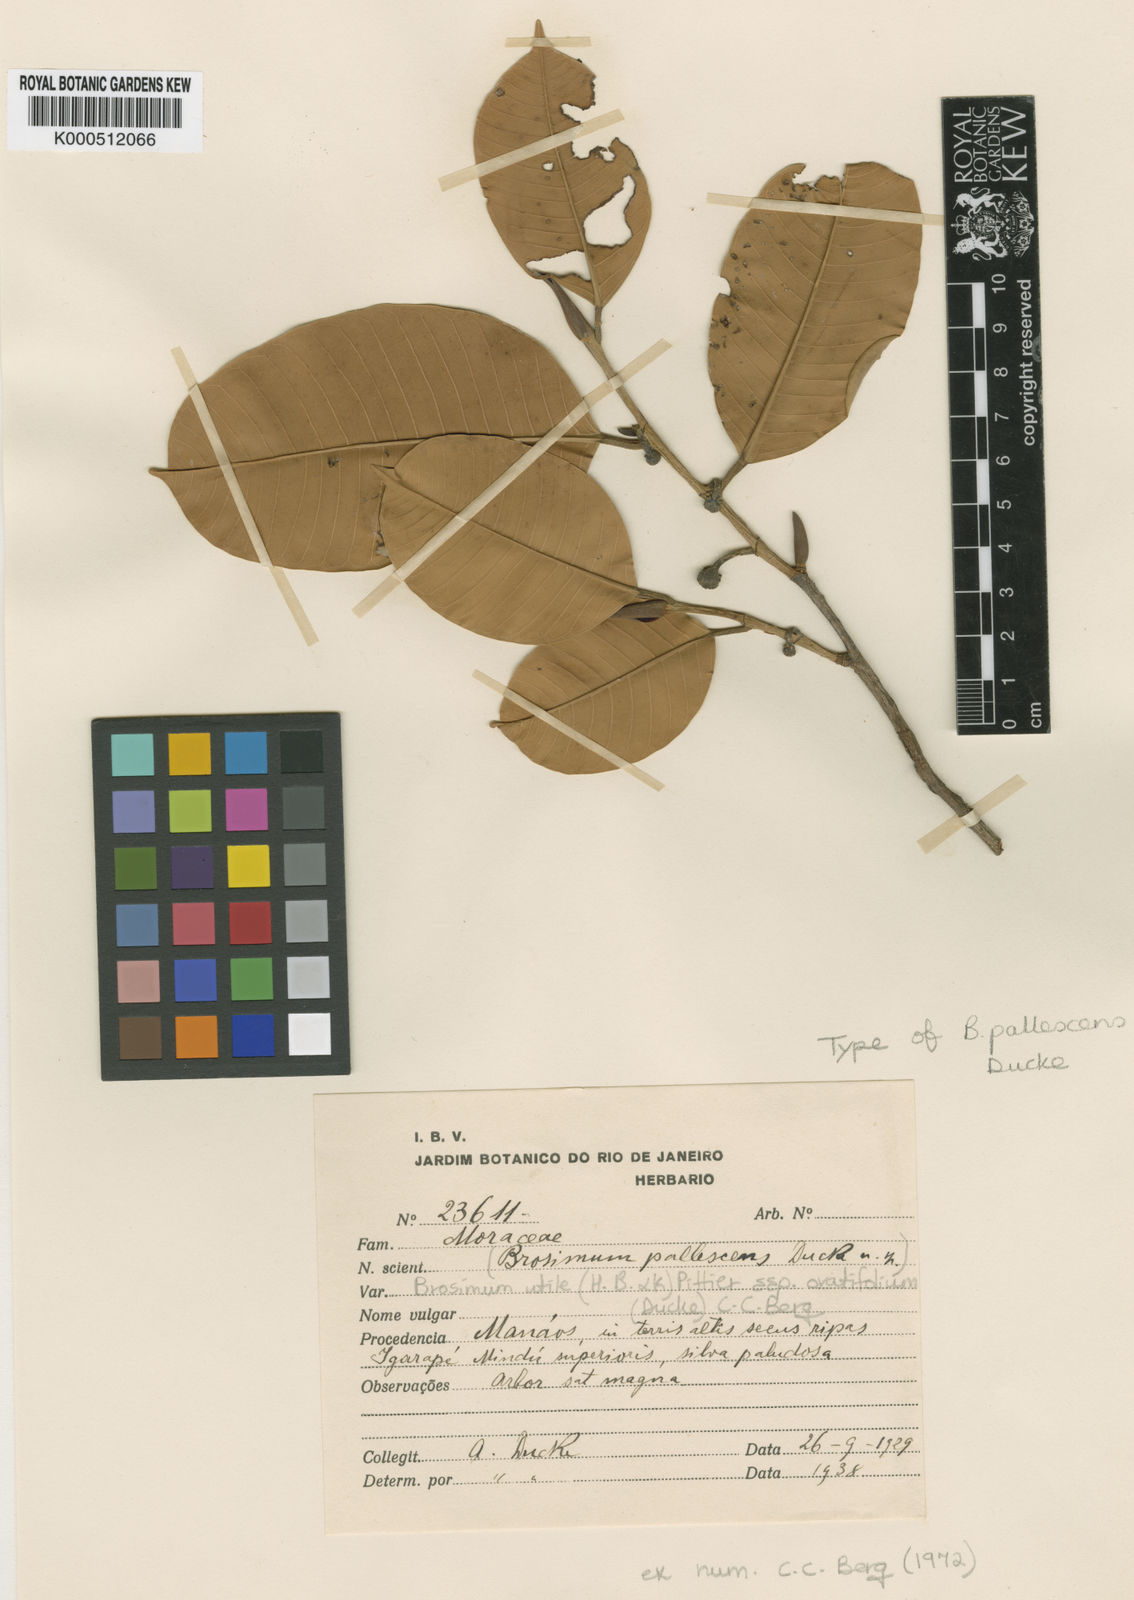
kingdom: Plantae
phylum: Tracheophyta
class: Magnoliopsida
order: Rosales
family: Moraceae
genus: Brosimum
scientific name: Brosimum utile
